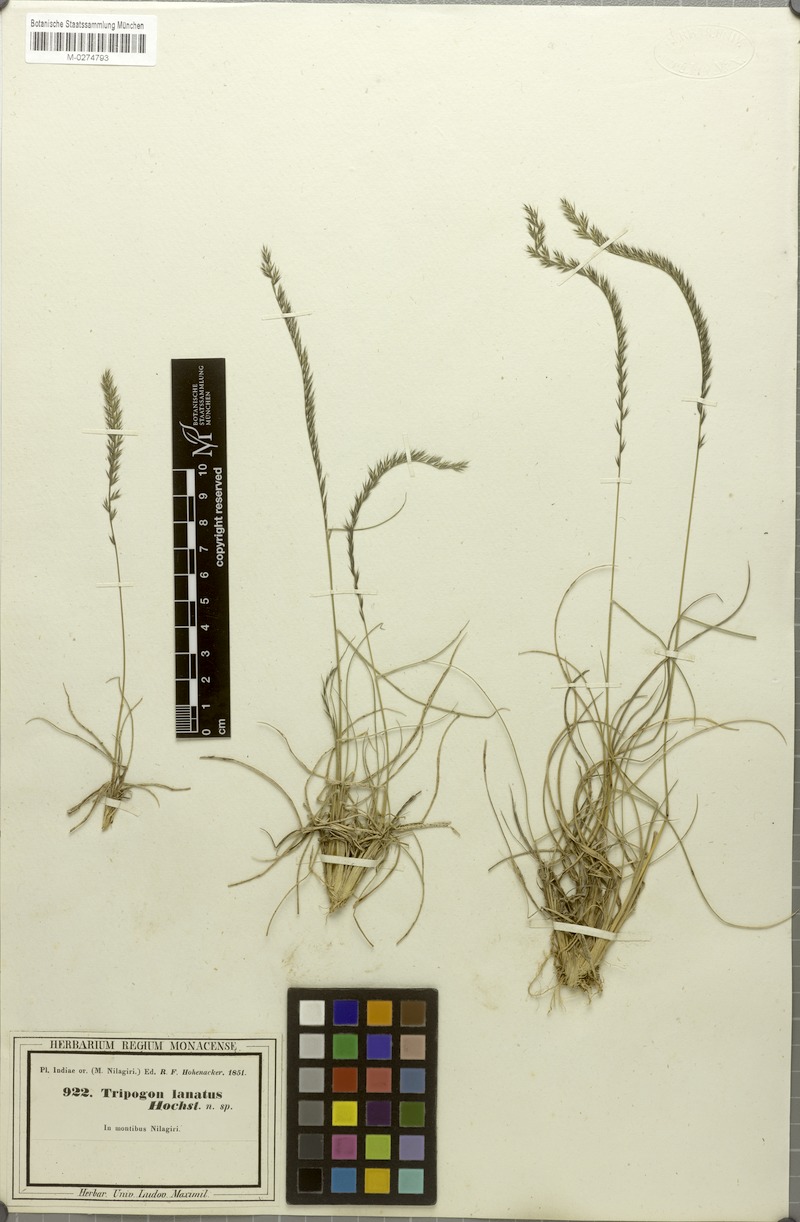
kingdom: Plantae
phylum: Tracheophyta
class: Liliopsida
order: Poales
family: Poaceae
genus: Tripogon
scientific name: Tripogon bromoides
